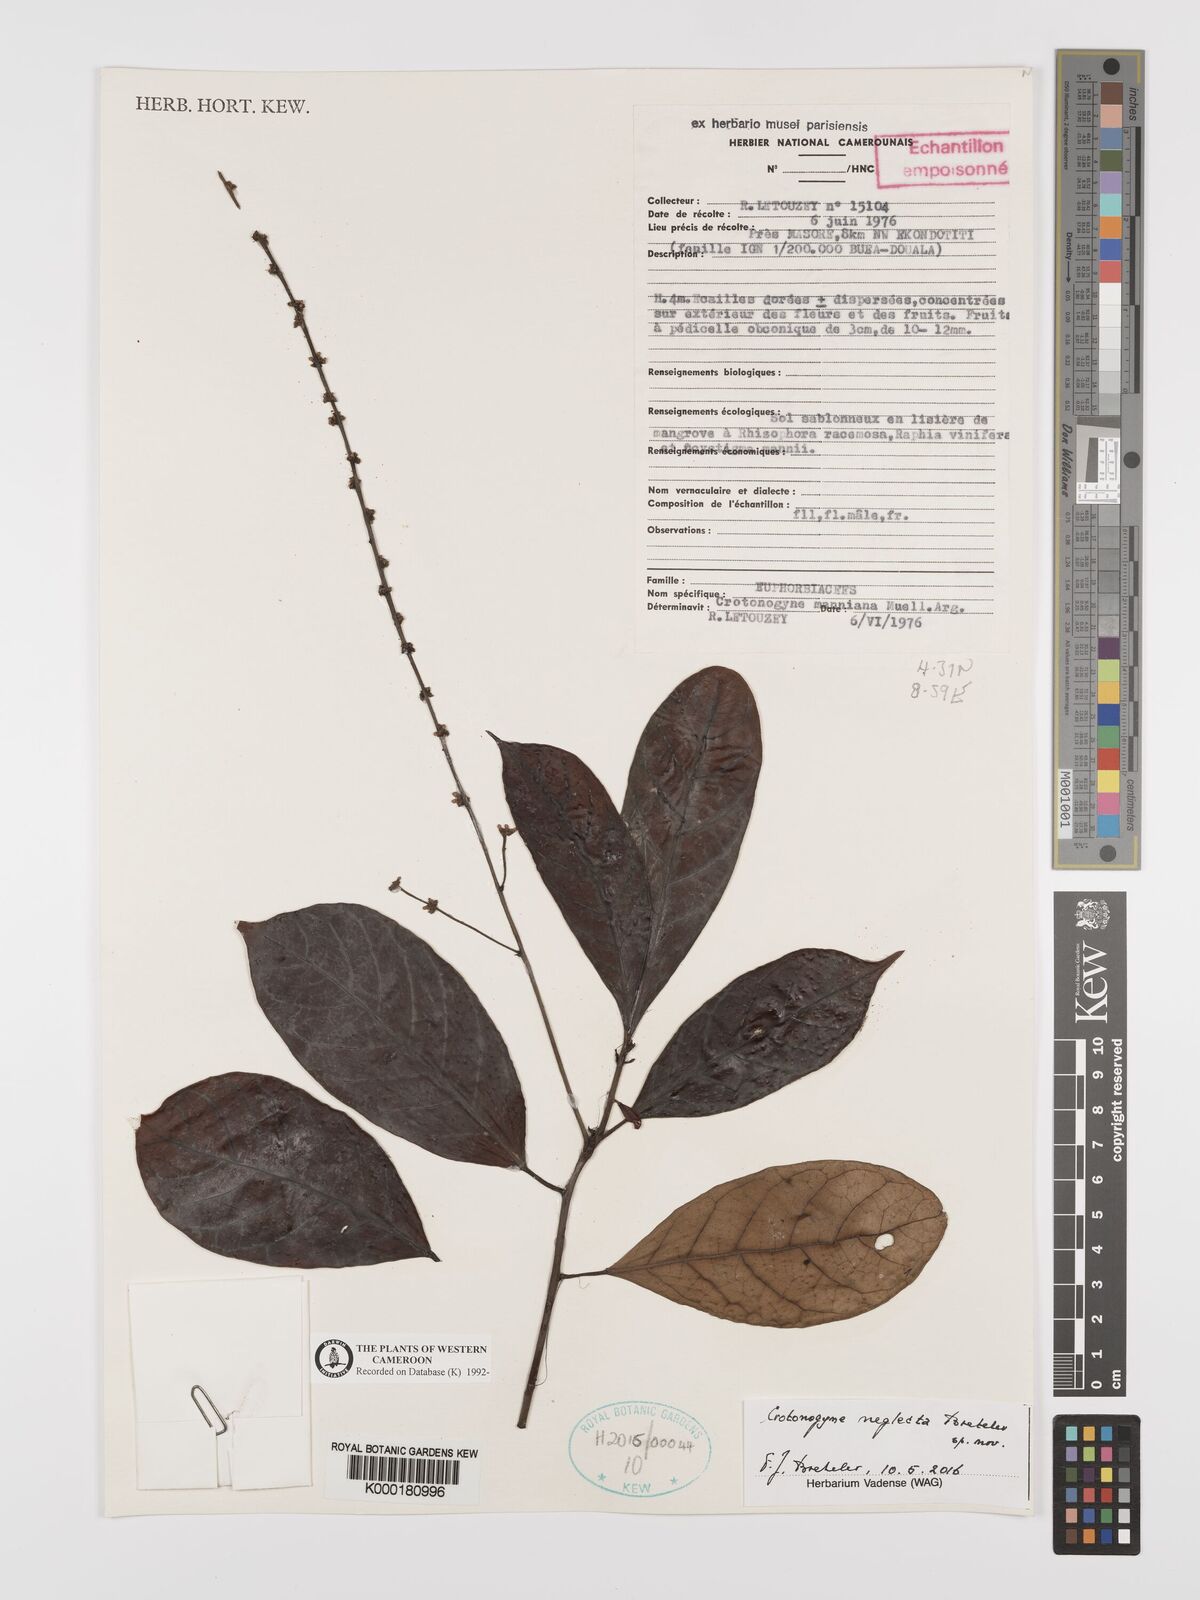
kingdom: Plantae
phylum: Tracheophyta
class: Magnoliopsida
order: Malpighiales
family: Euphorbiaceae
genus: Crotonogyne
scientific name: Crotonogyne
